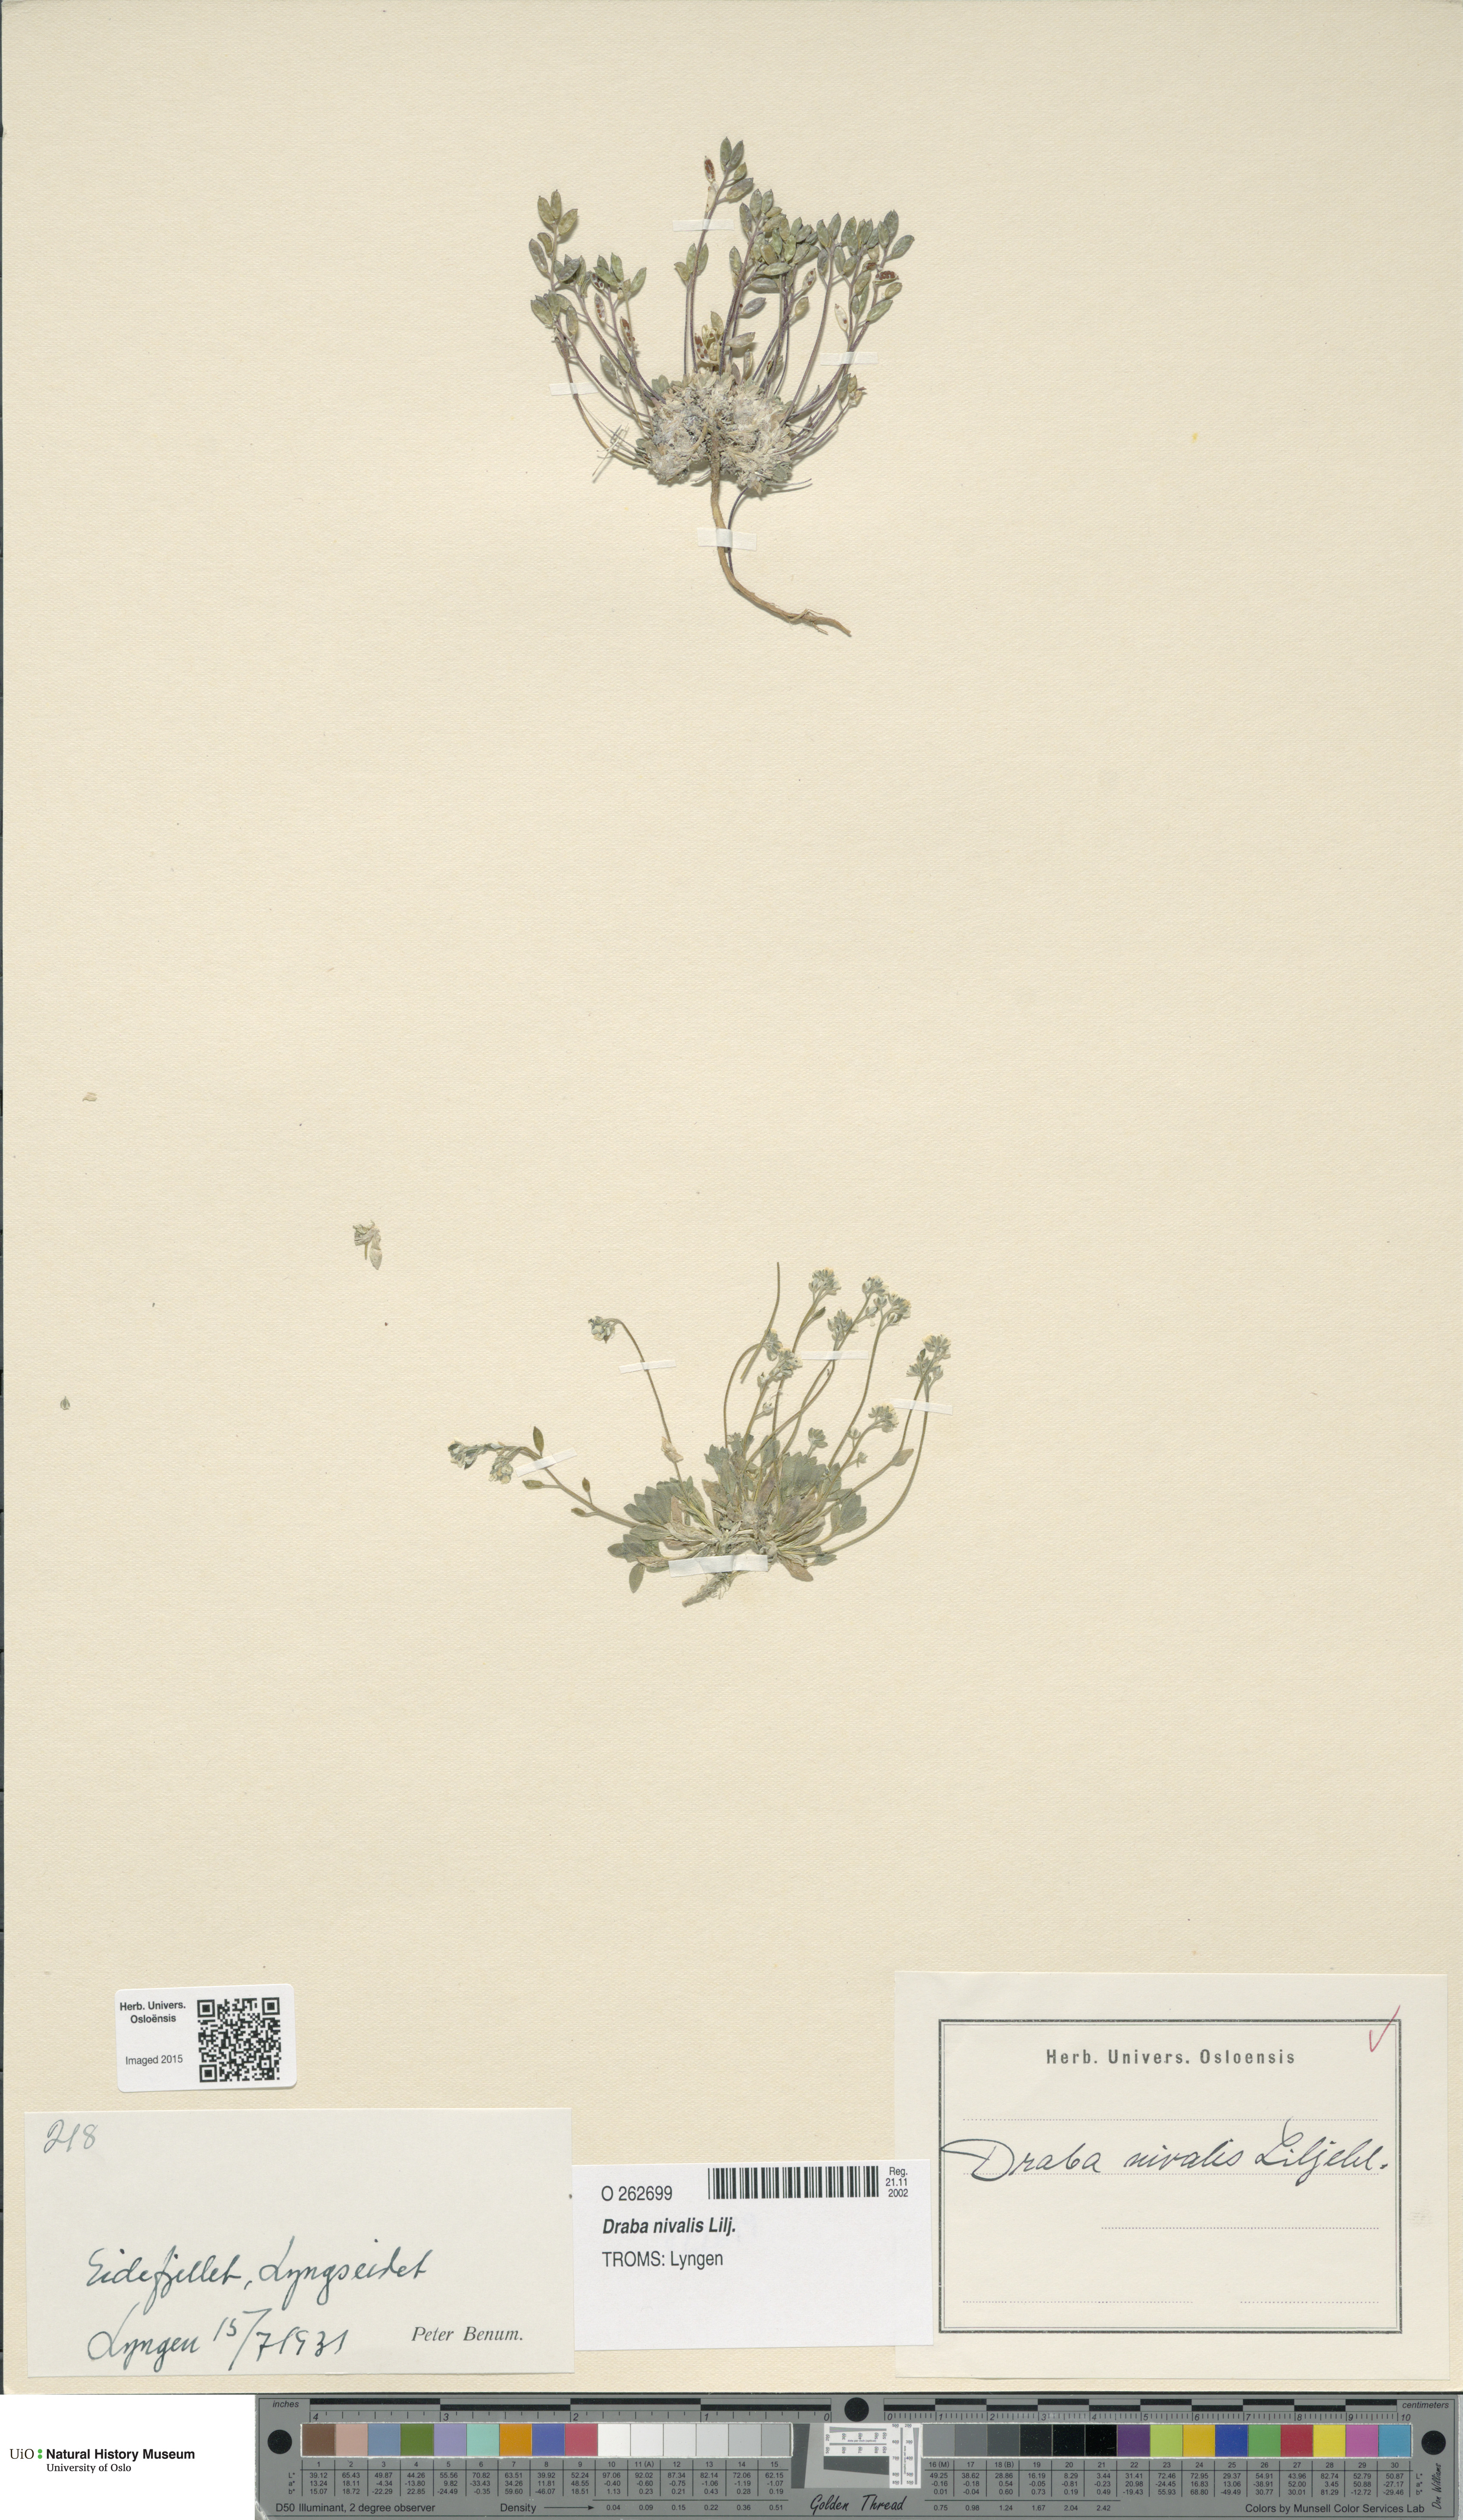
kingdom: Plantae
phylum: Tracheophyta
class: Magnoliopsida
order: Brassicales
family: Brassicaceae
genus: Draba
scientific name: Draba nivalis
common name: Snow draba
